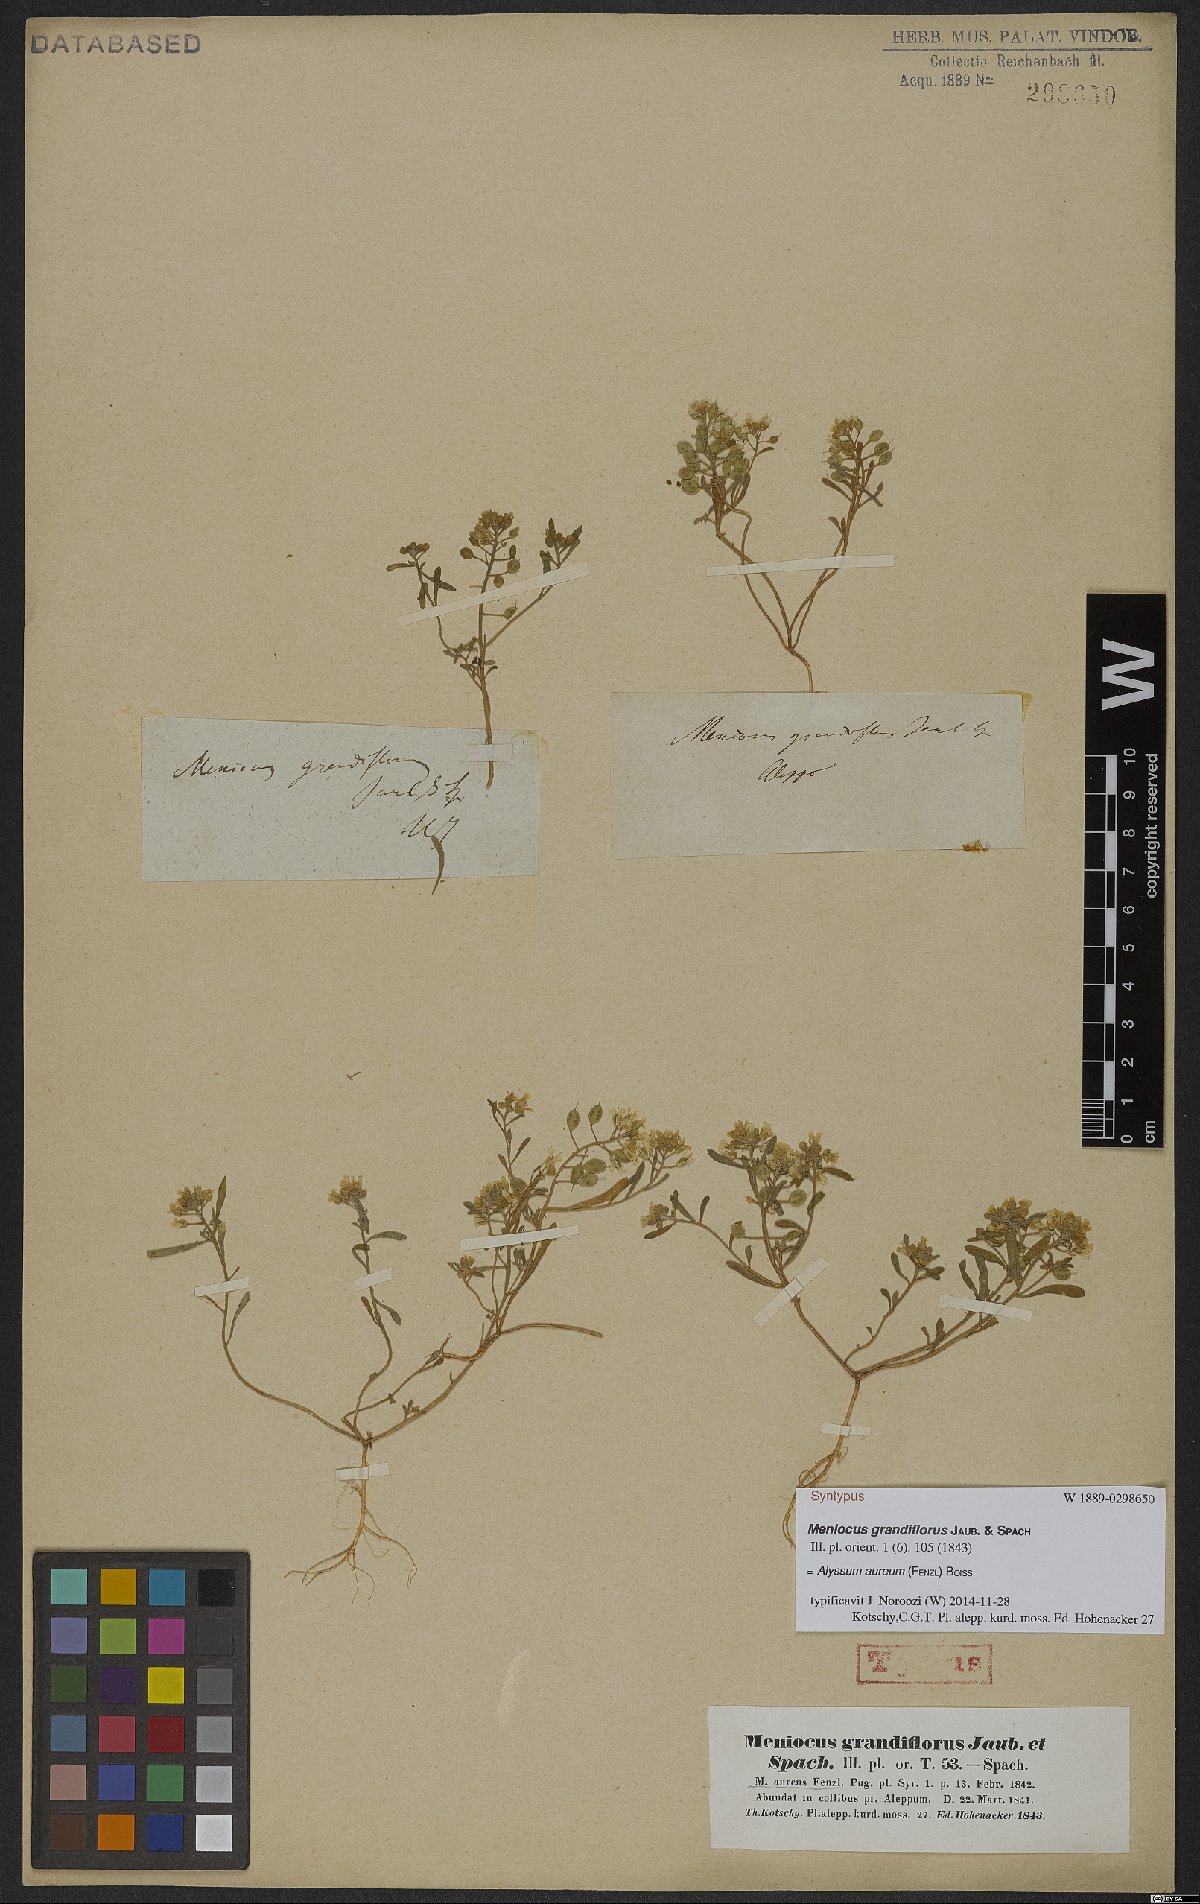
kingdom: Plantae
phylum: Tracheophyta
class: Magnoliopsida
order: Brassicales
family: Brassicaceae
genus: Meniocus
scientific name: Meniocus aureus
